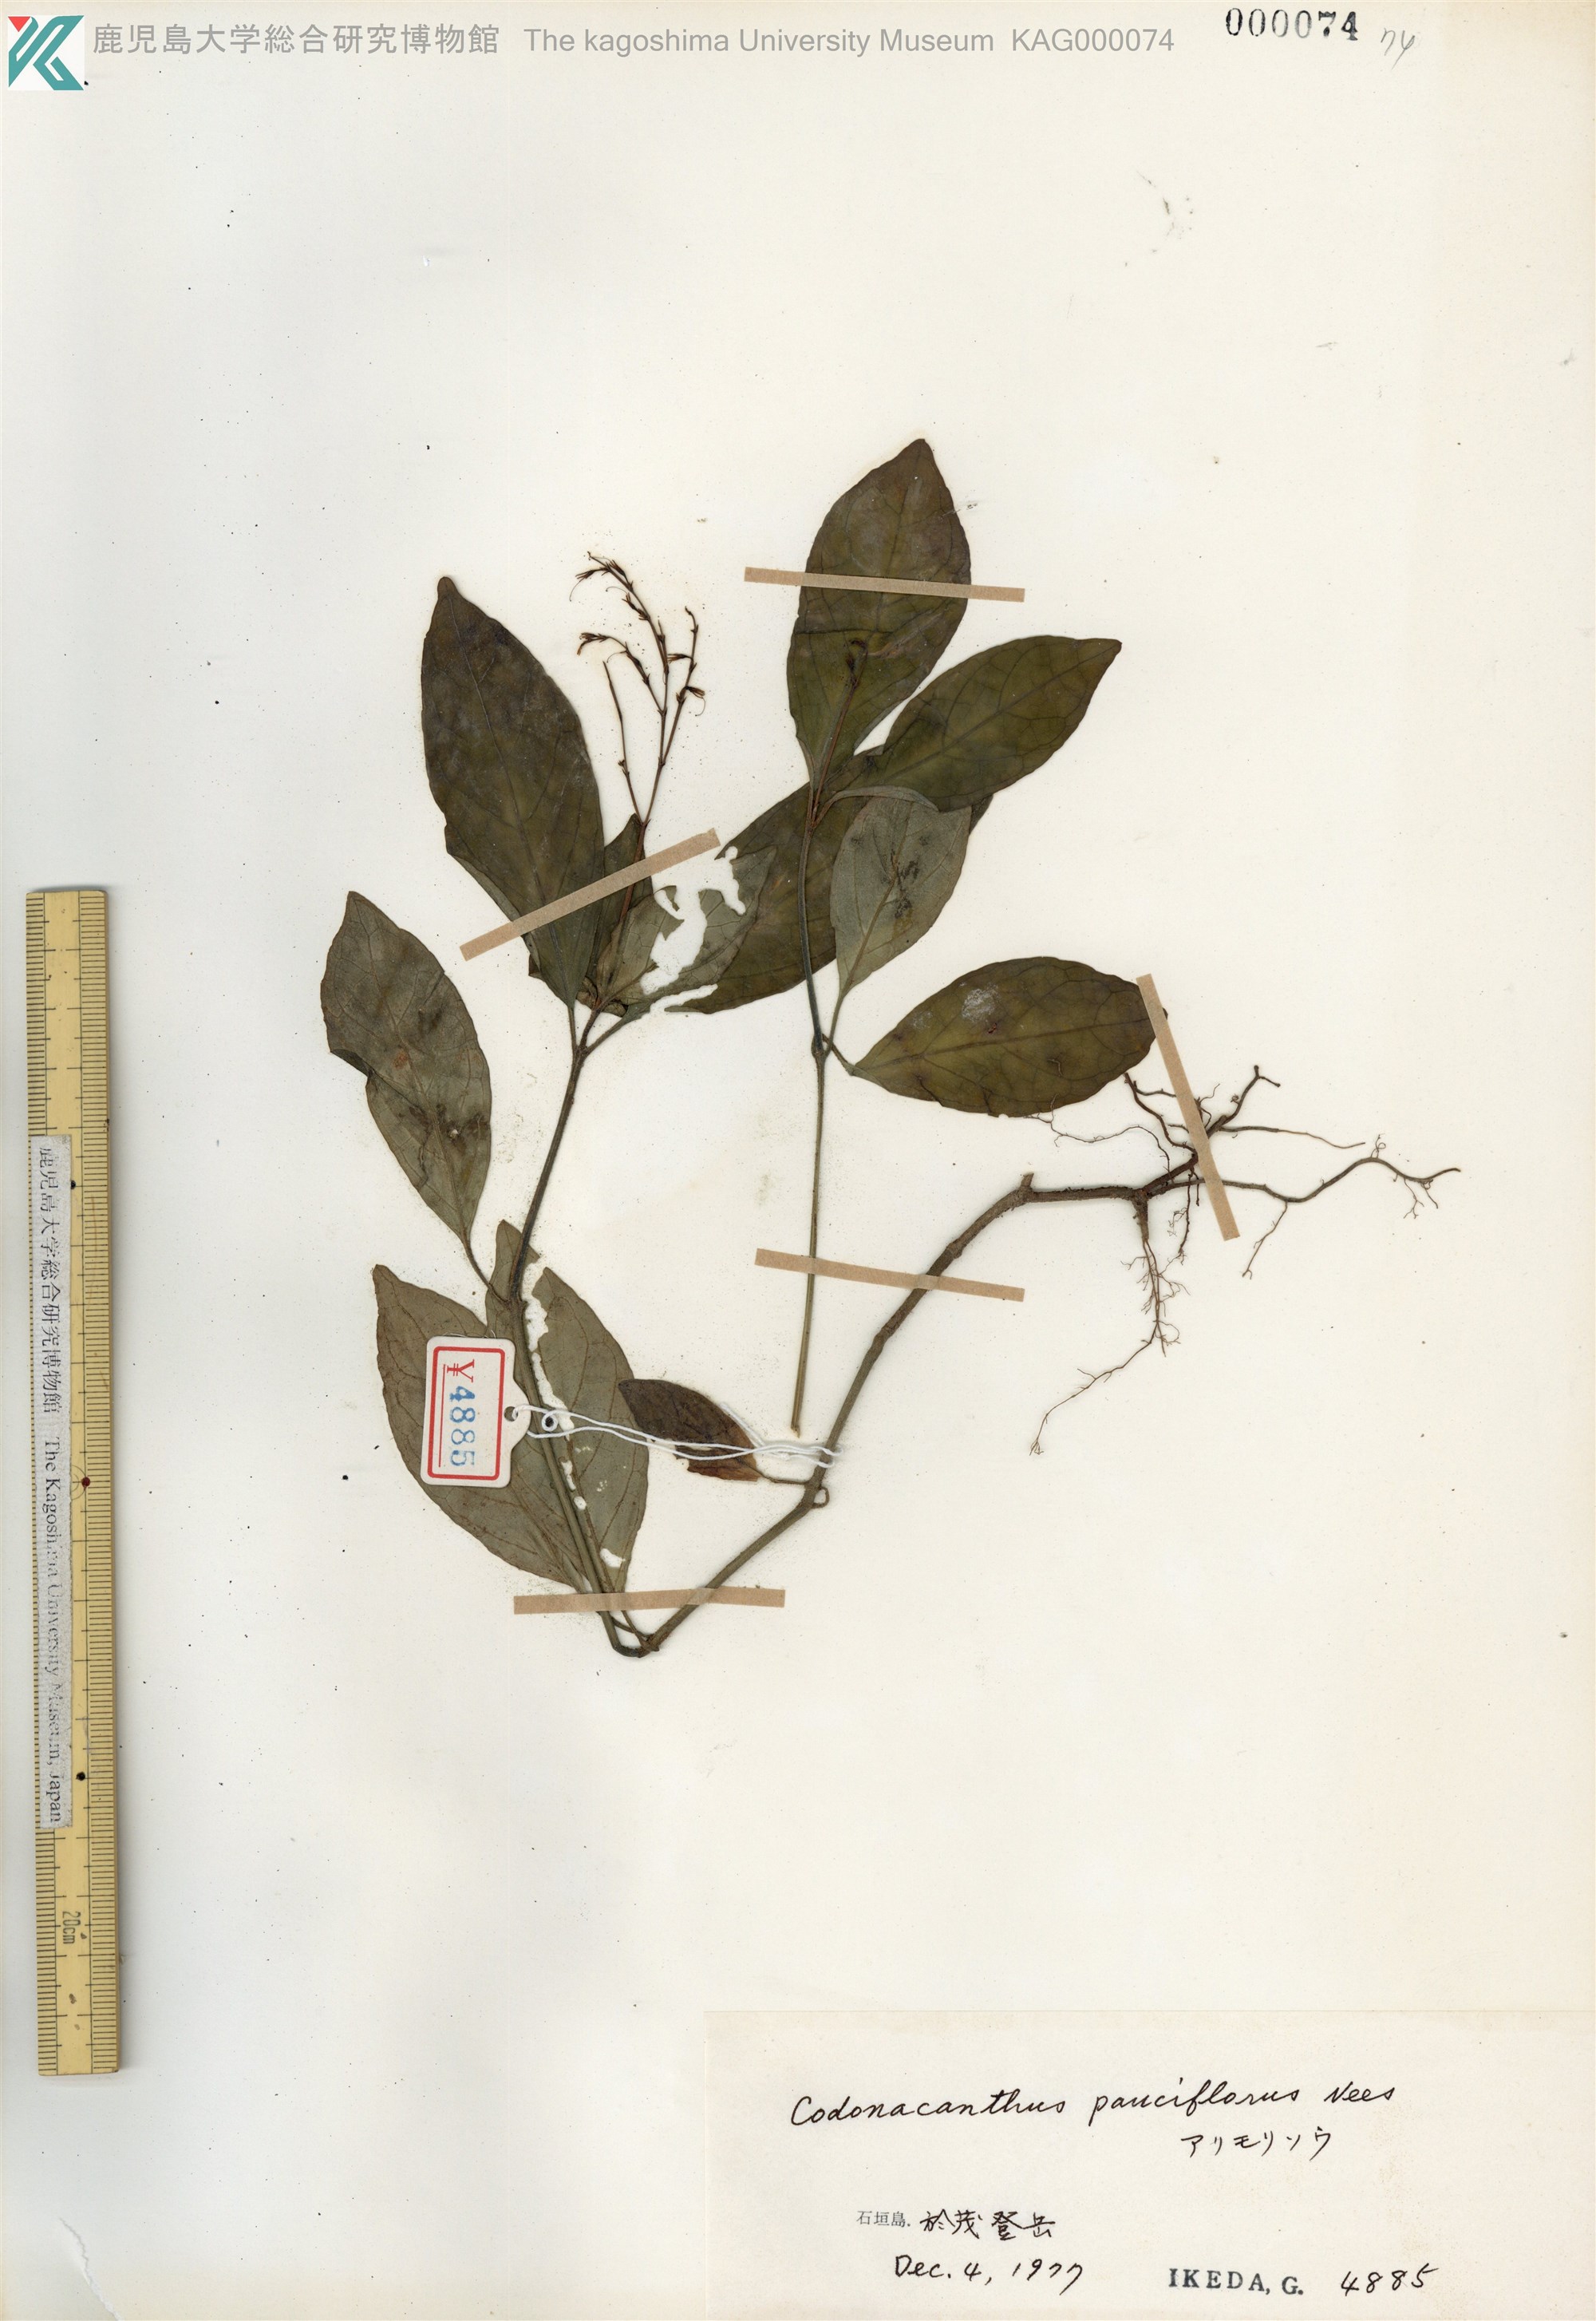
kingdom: Plantae
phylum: Tracheophyta
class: Magnoliopsida
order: Lamiales
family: Acanthaceae
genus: Codonacanthus
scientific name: Codonacanthus pauciflorus
